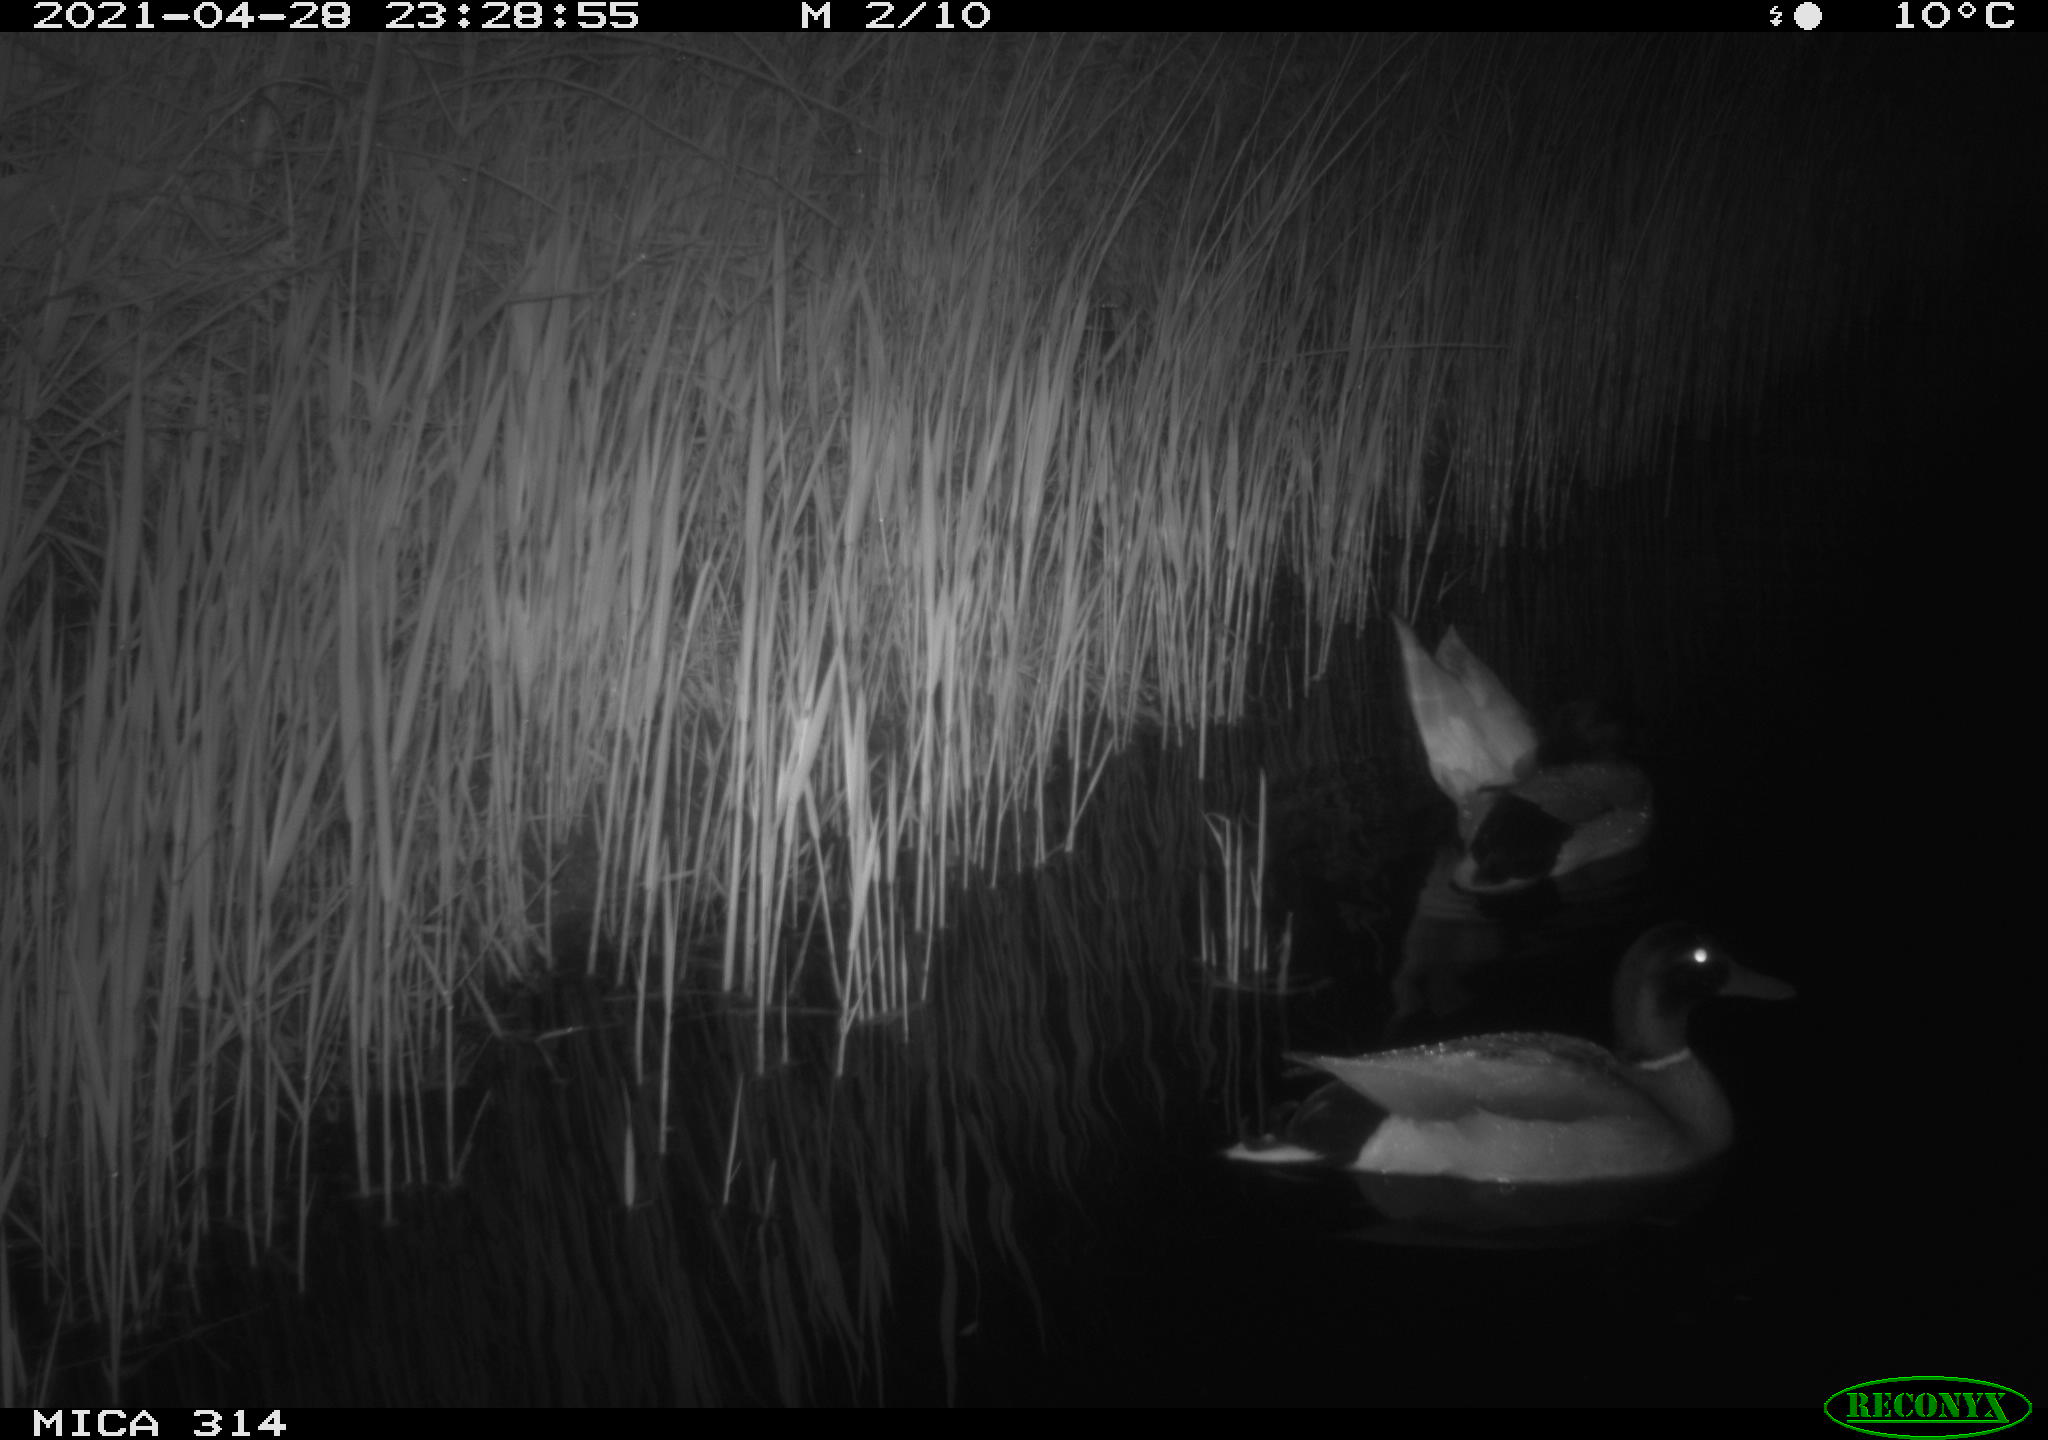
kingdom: Animalia
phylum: Chordata
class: Aves
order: Anseriformes
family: Anatidae
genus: Anas
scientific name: Anas platyrhynchos
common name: Mallard
